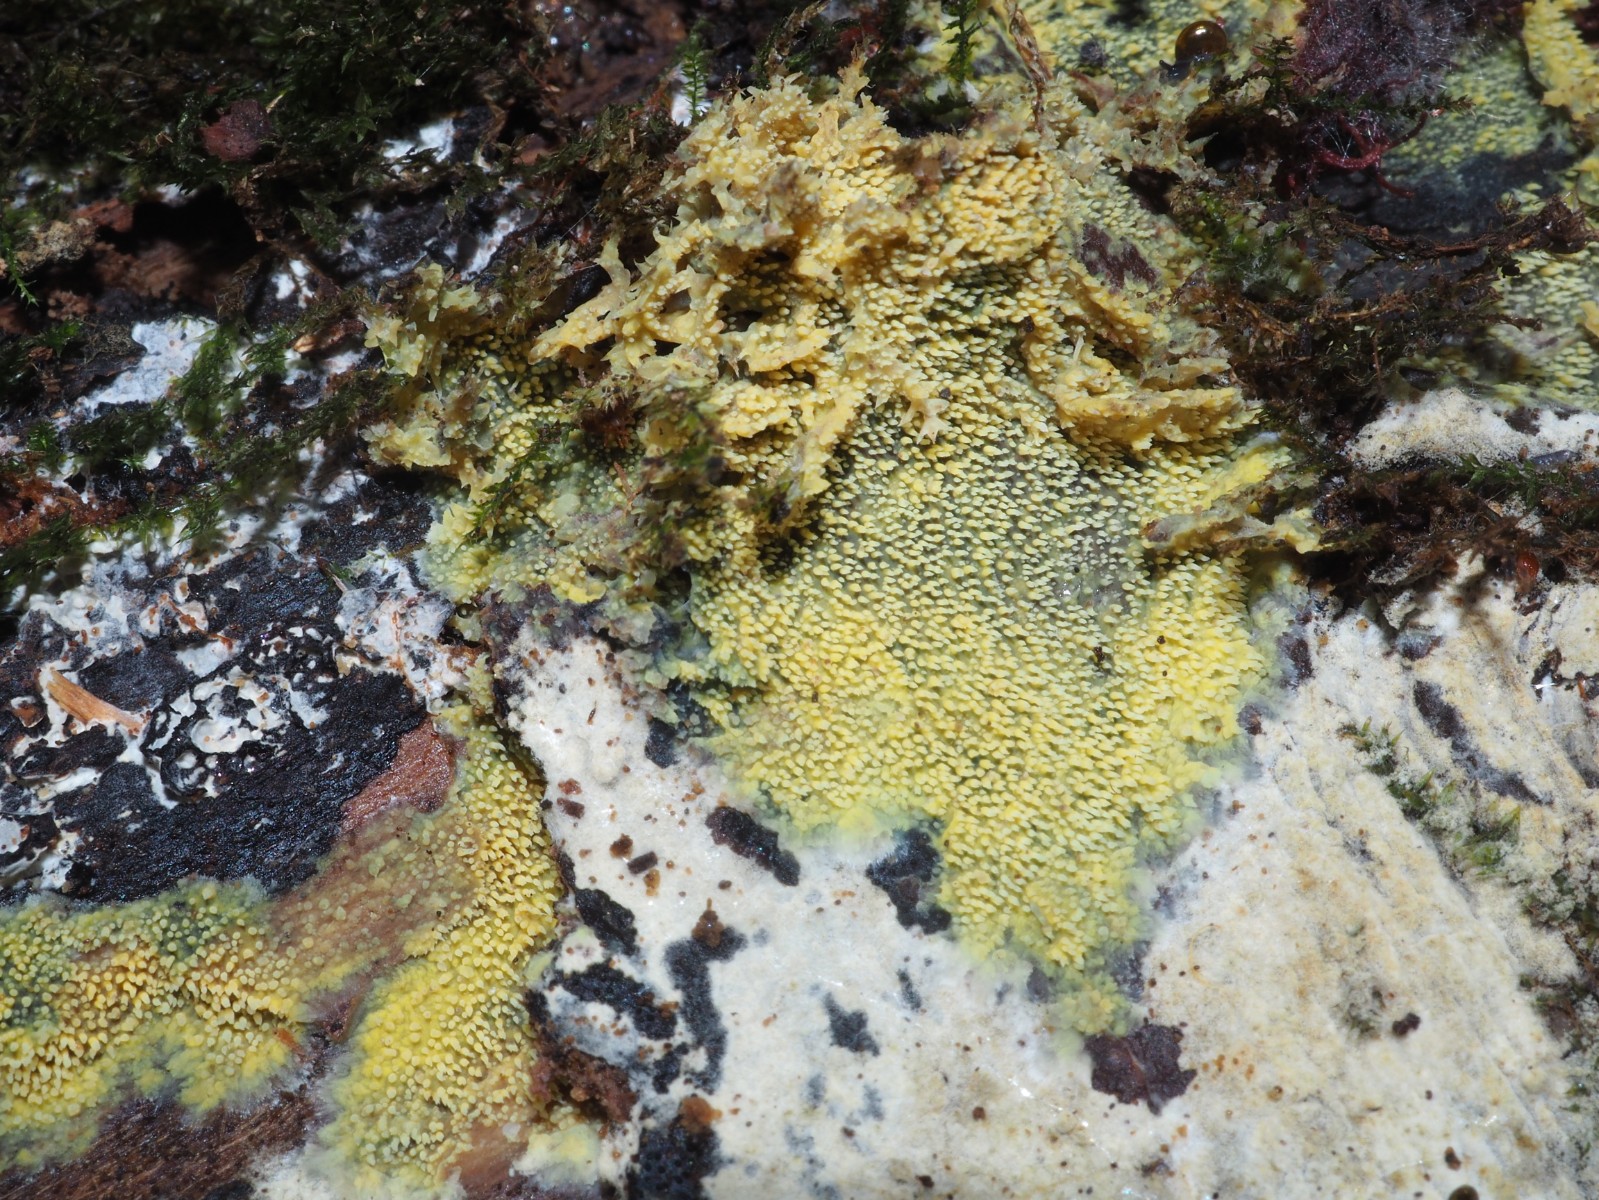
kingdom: Fungi
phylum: Basidiomycota
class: Agaricomycetes
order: Polyporales
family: Meruliaceae
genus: Mycoacia
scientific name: Mycoacia uda
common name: citrongul vokspig
